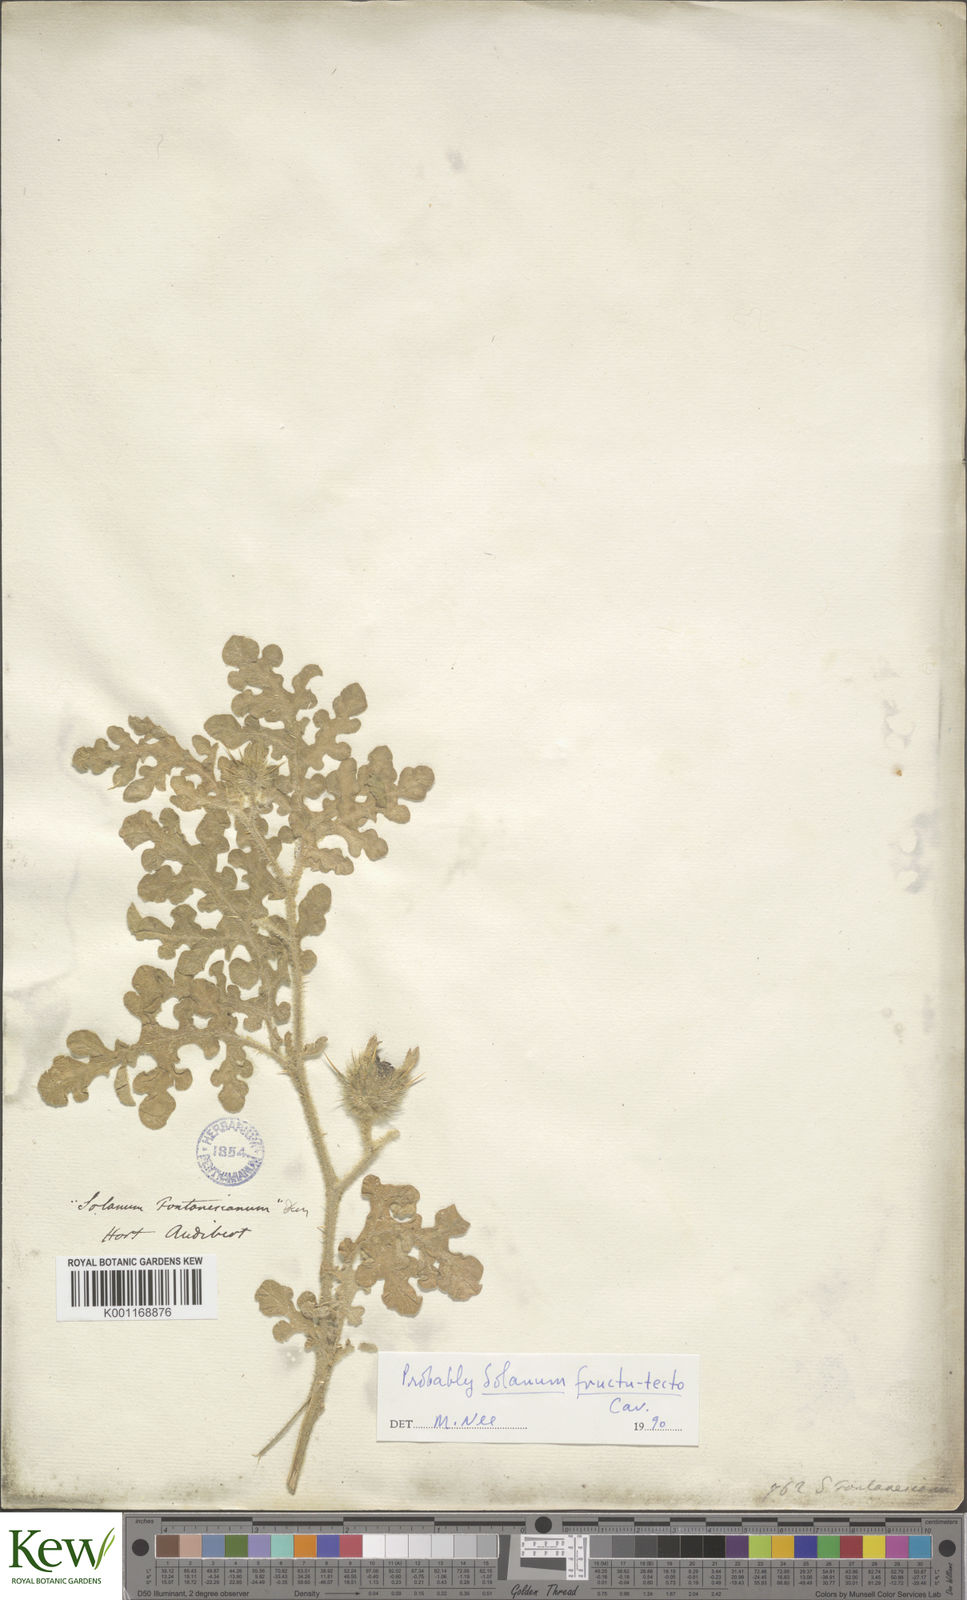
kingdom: Plantae
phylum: Tracheophyta
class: Magnoliopsida
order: Solanales
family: Solanaceae
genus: Solanum
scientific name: Solanum tectum
